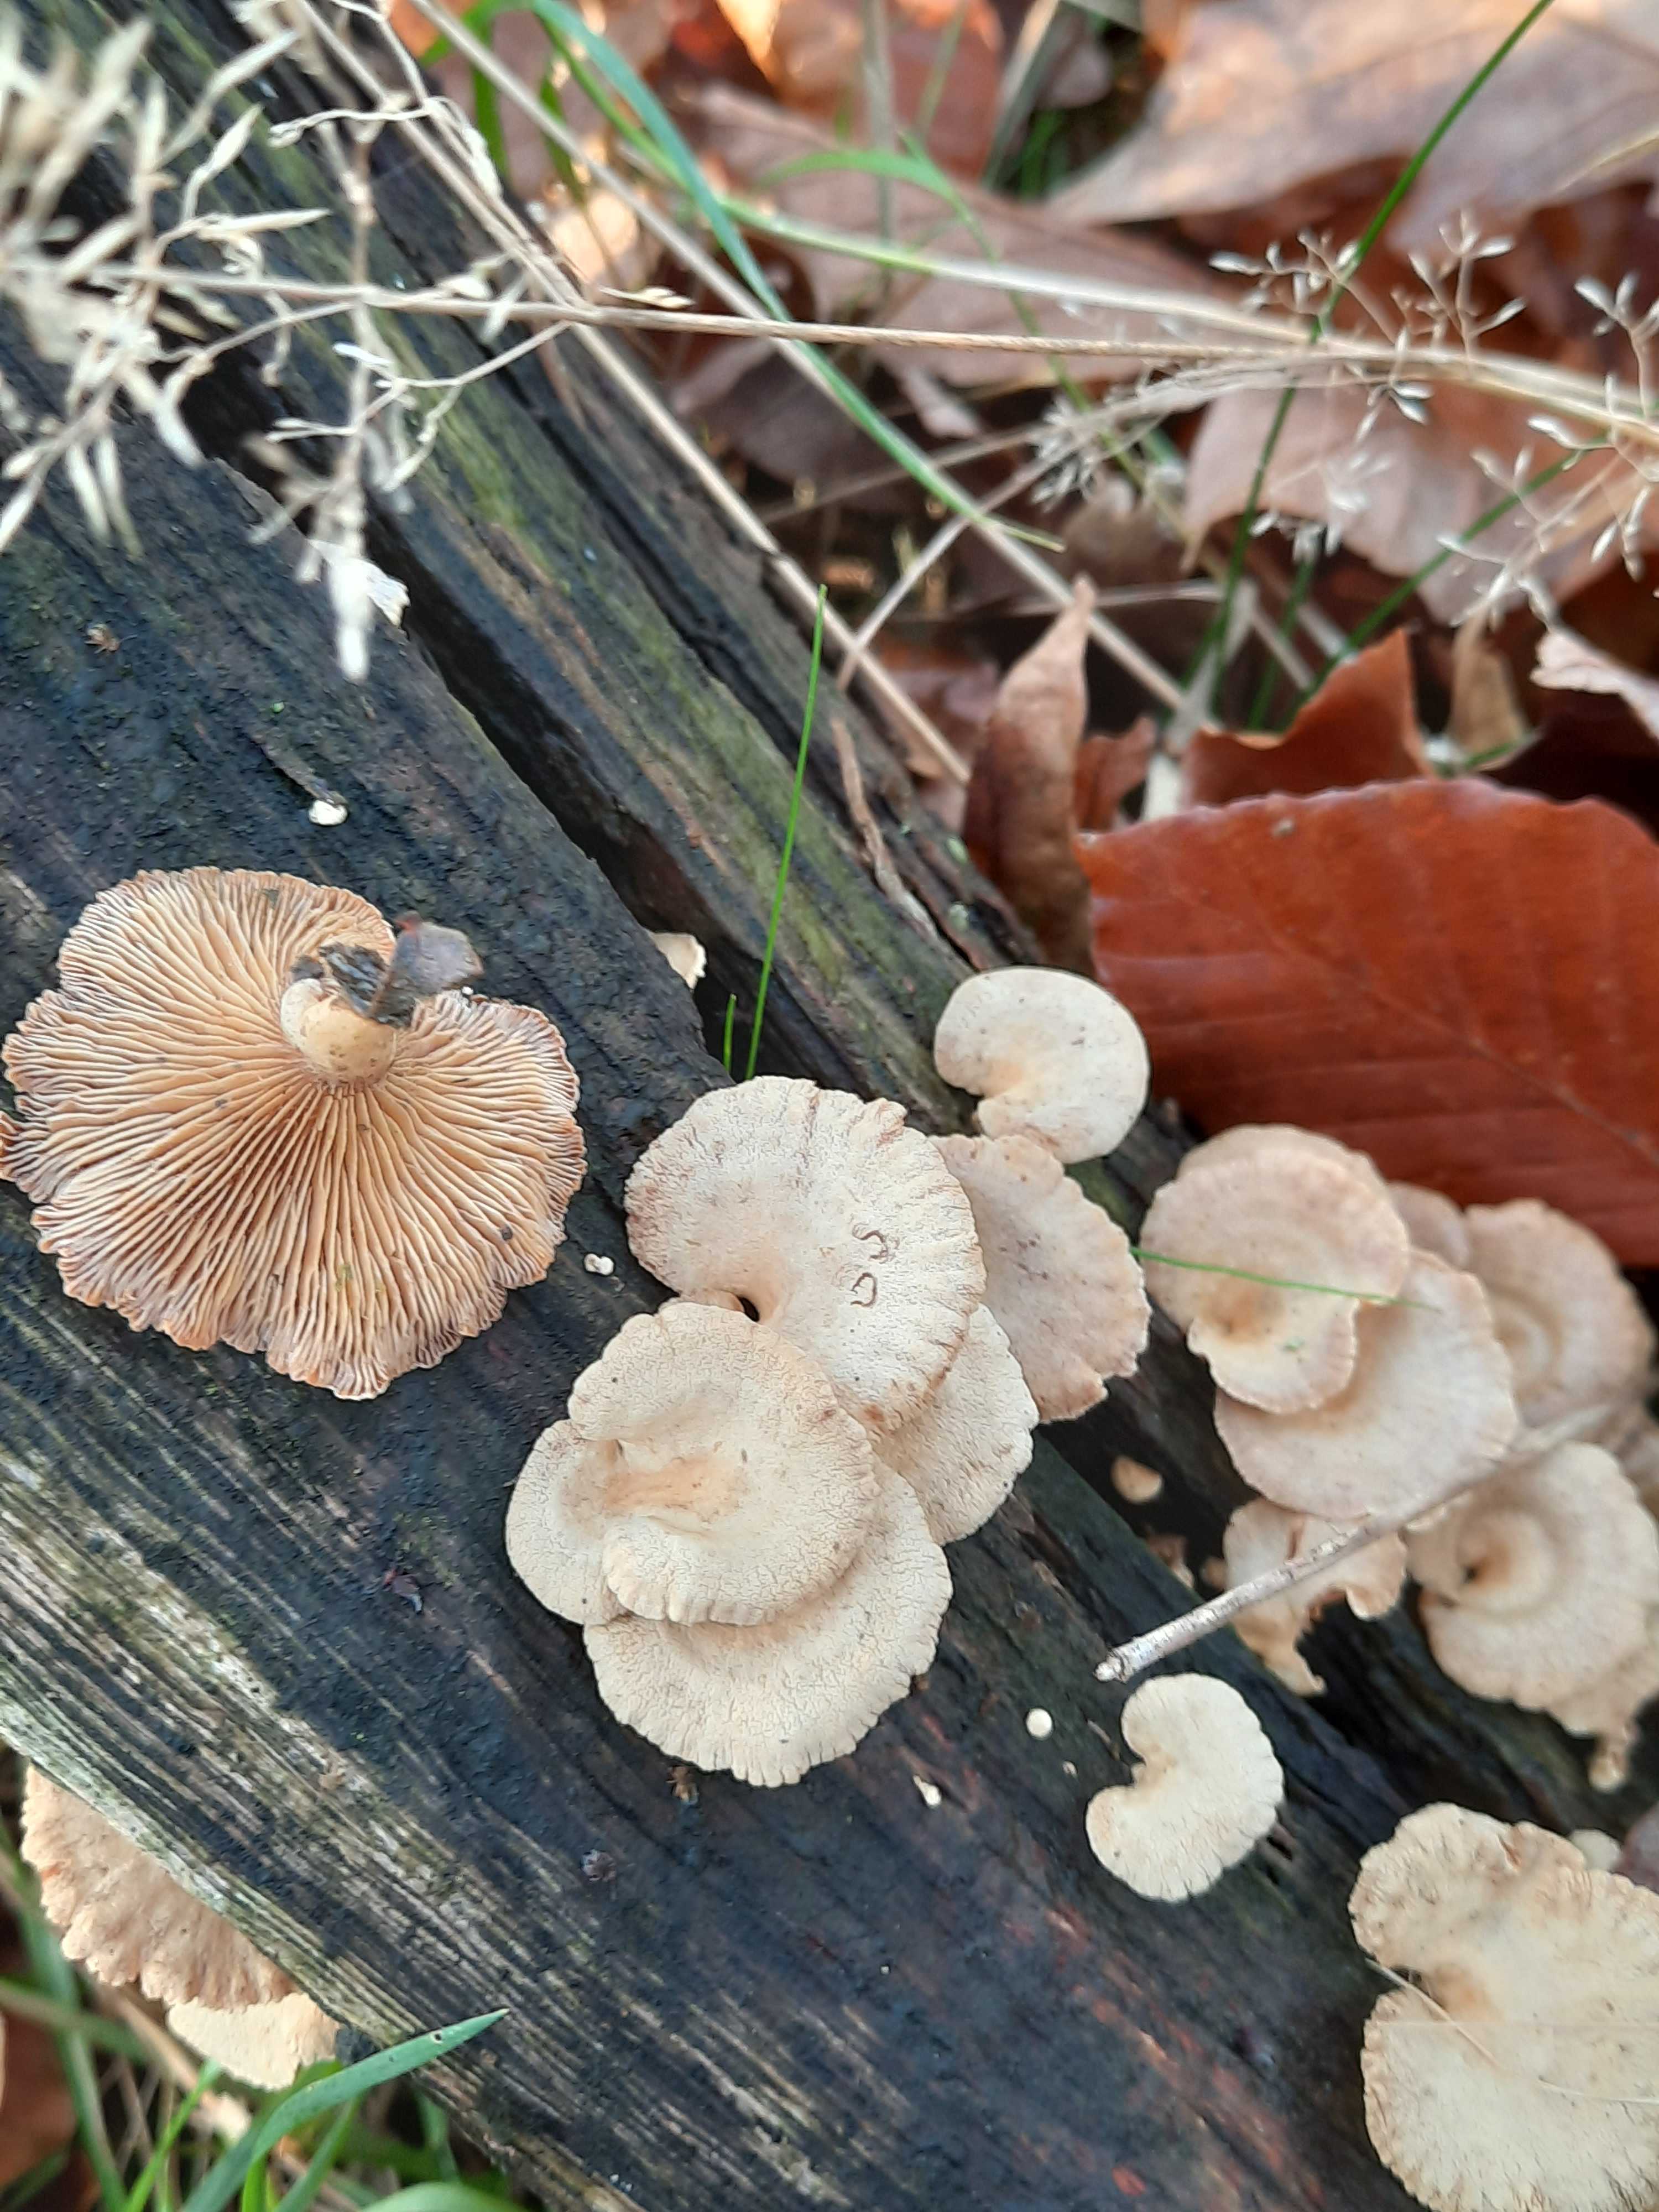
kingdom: Fungi
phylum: Basidiomycota
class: Agaricomycetes
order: Agaricales
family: Mycenaceae
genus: Panellus
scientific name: Panellus stipticus
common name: kliddet epaulethat
